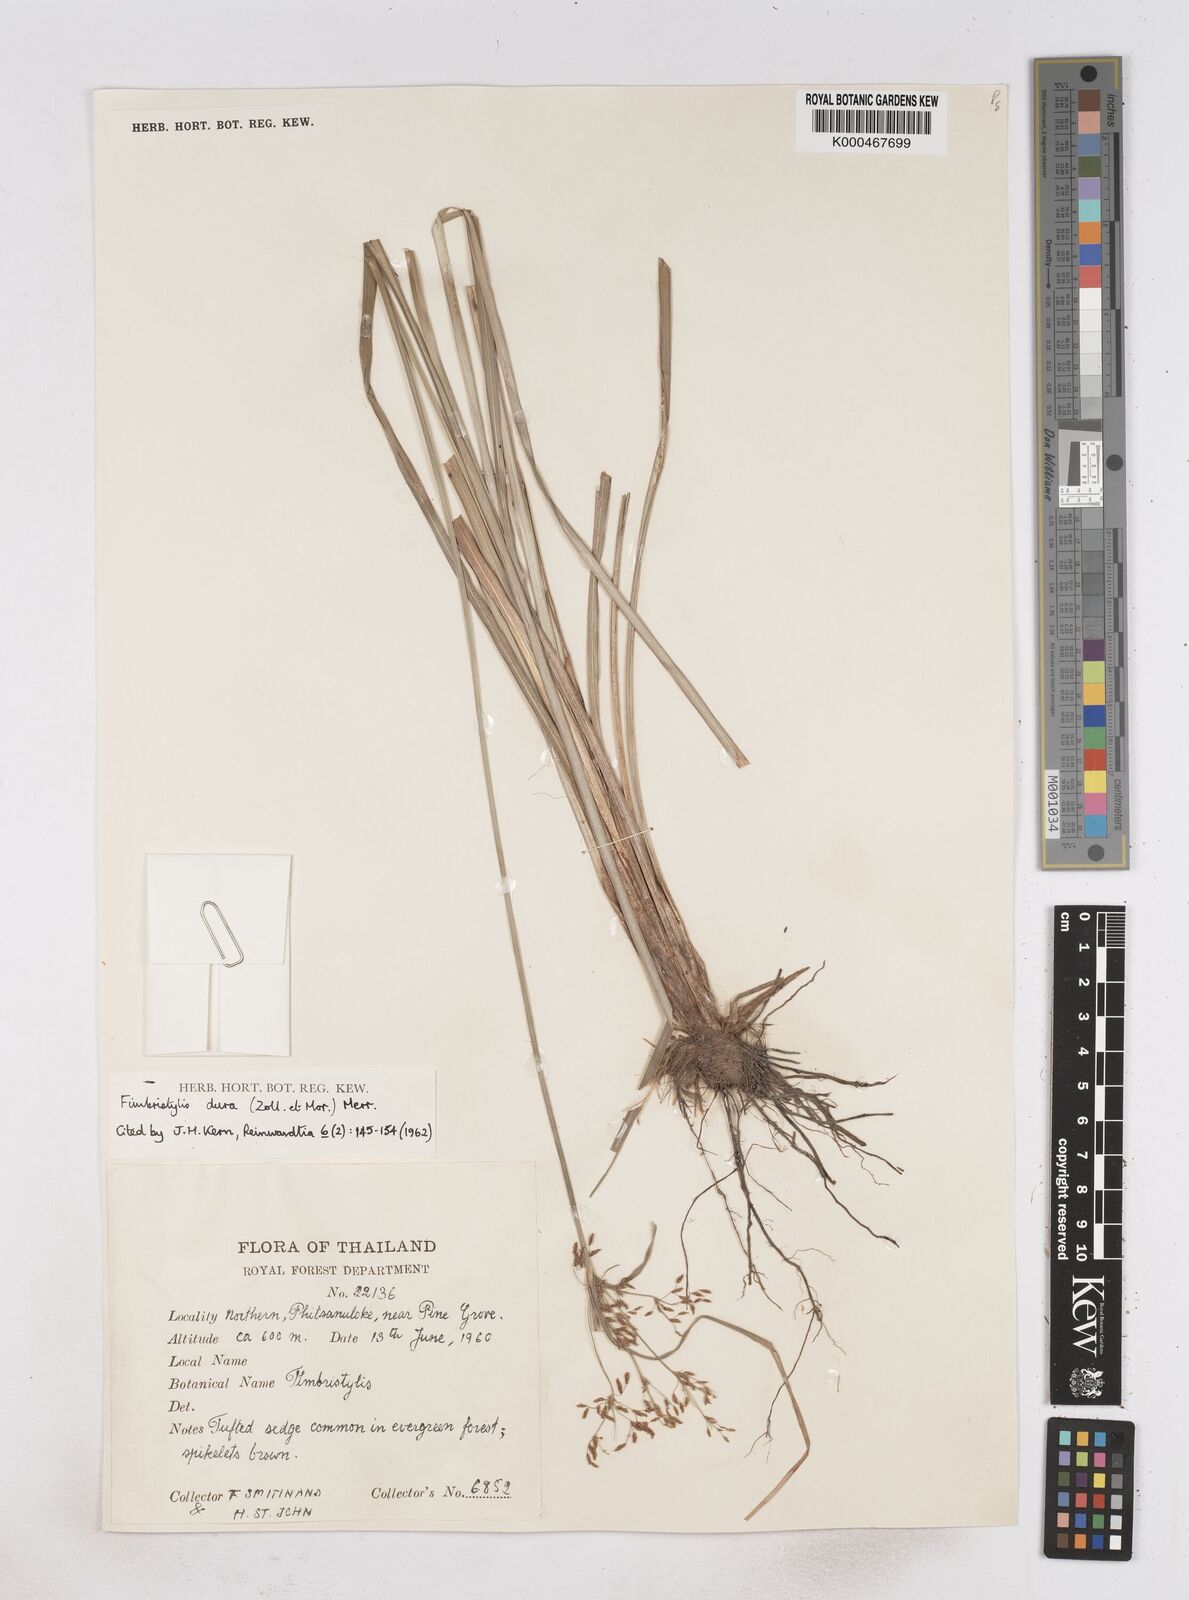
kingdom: Plantae
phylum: Tracheophyta
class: Liliopsida
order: Poales
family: Cyperaceae
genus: Fimbristylis
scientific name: Fimbristylis dura
